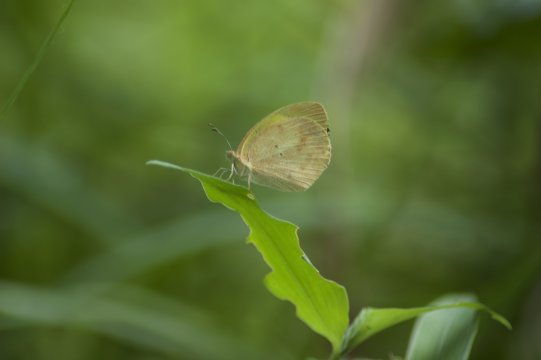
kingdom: Animalia
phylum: Arthropoda
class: Insecta
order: Lepidoptera
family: Pieridae
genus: Eurema
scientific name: Eurema daira
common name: Barred Yellow
